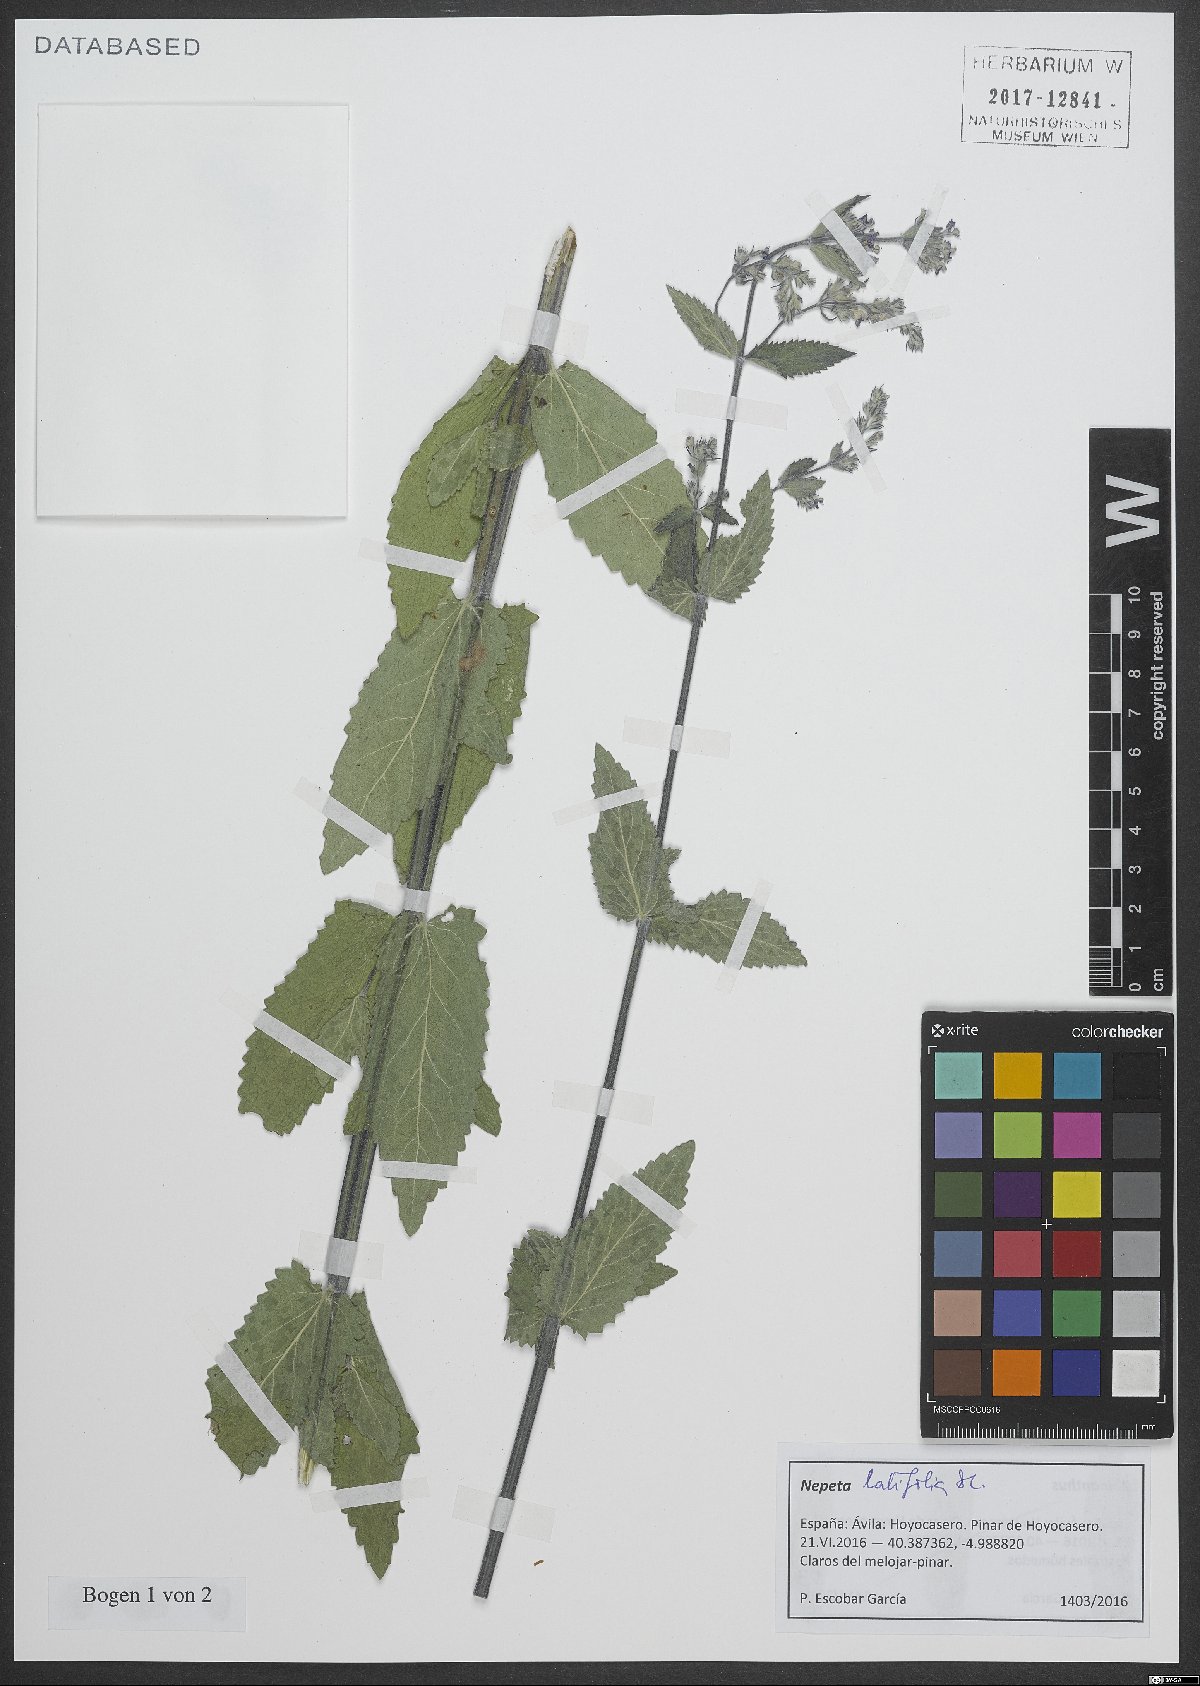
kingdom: Plantae
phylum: Tracheophyta
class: Magnoliopsida
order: Lamiales
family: Lamiaceae
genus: Nepeta
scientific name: Nepeta latifolia
